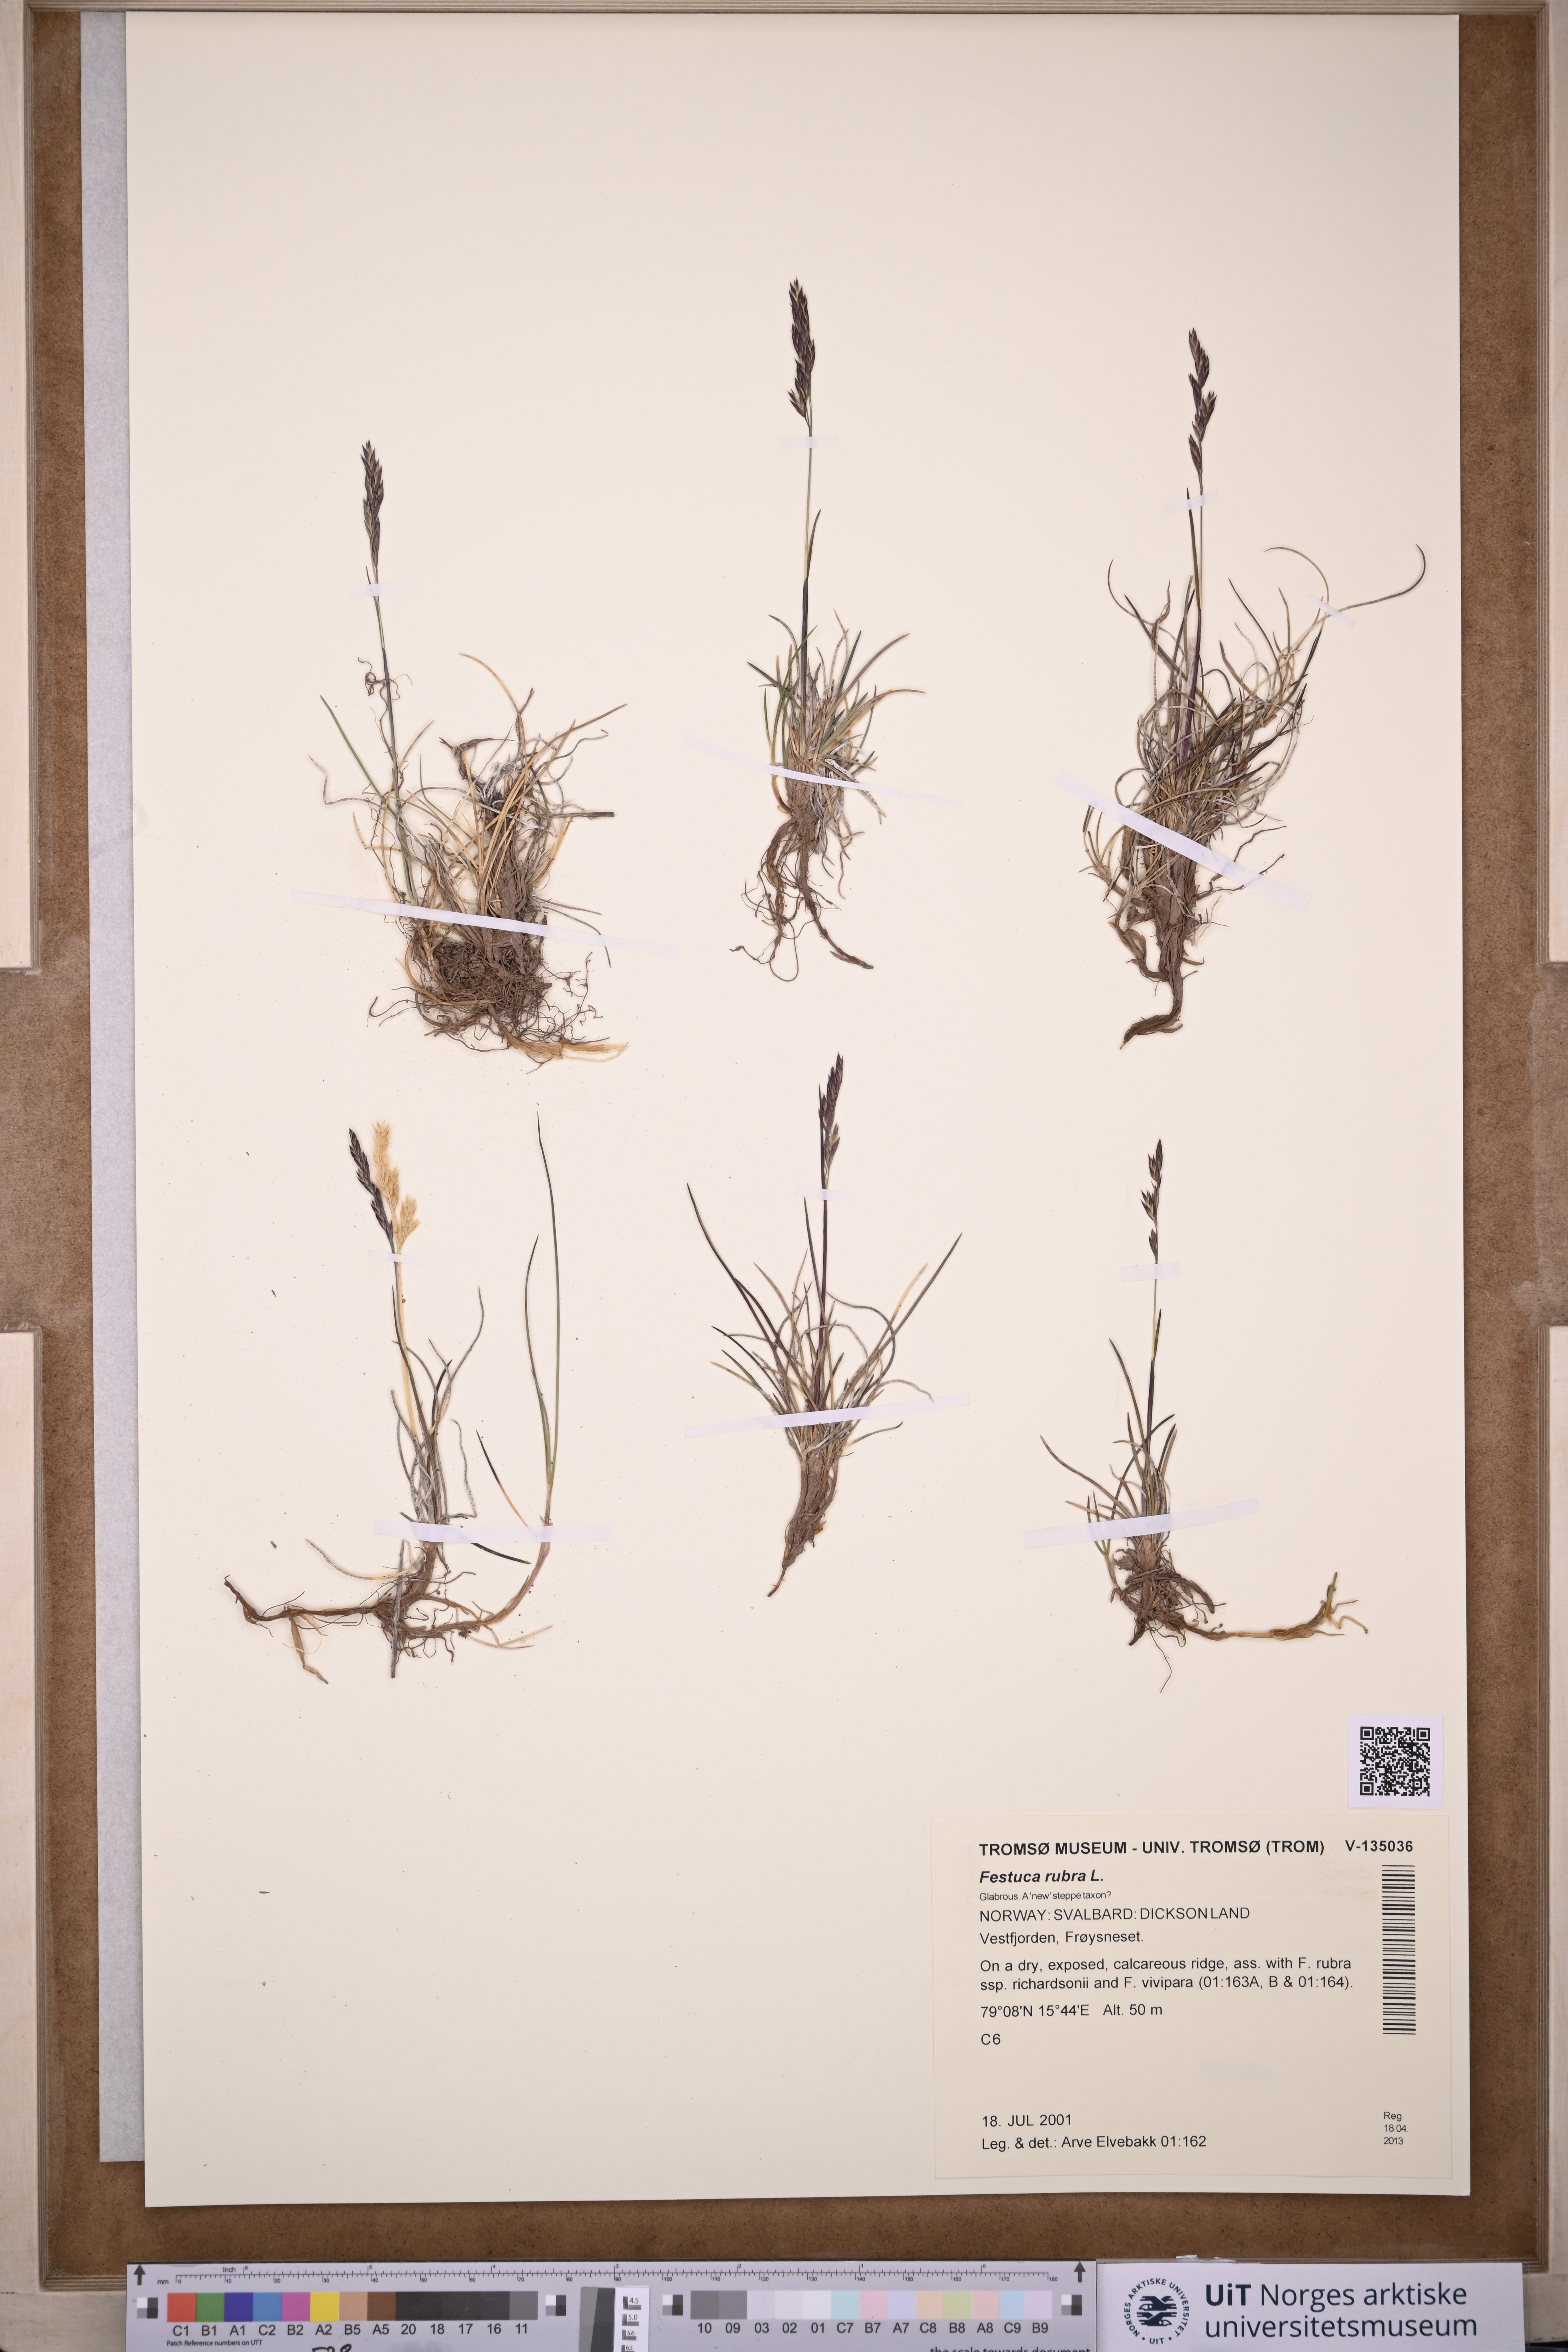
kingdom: Plantae
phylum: Tracheophyta
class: Liliopsida
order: Poales
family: Poaceae
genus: Festuca
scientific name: Festuca rubra
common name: Red fescue
